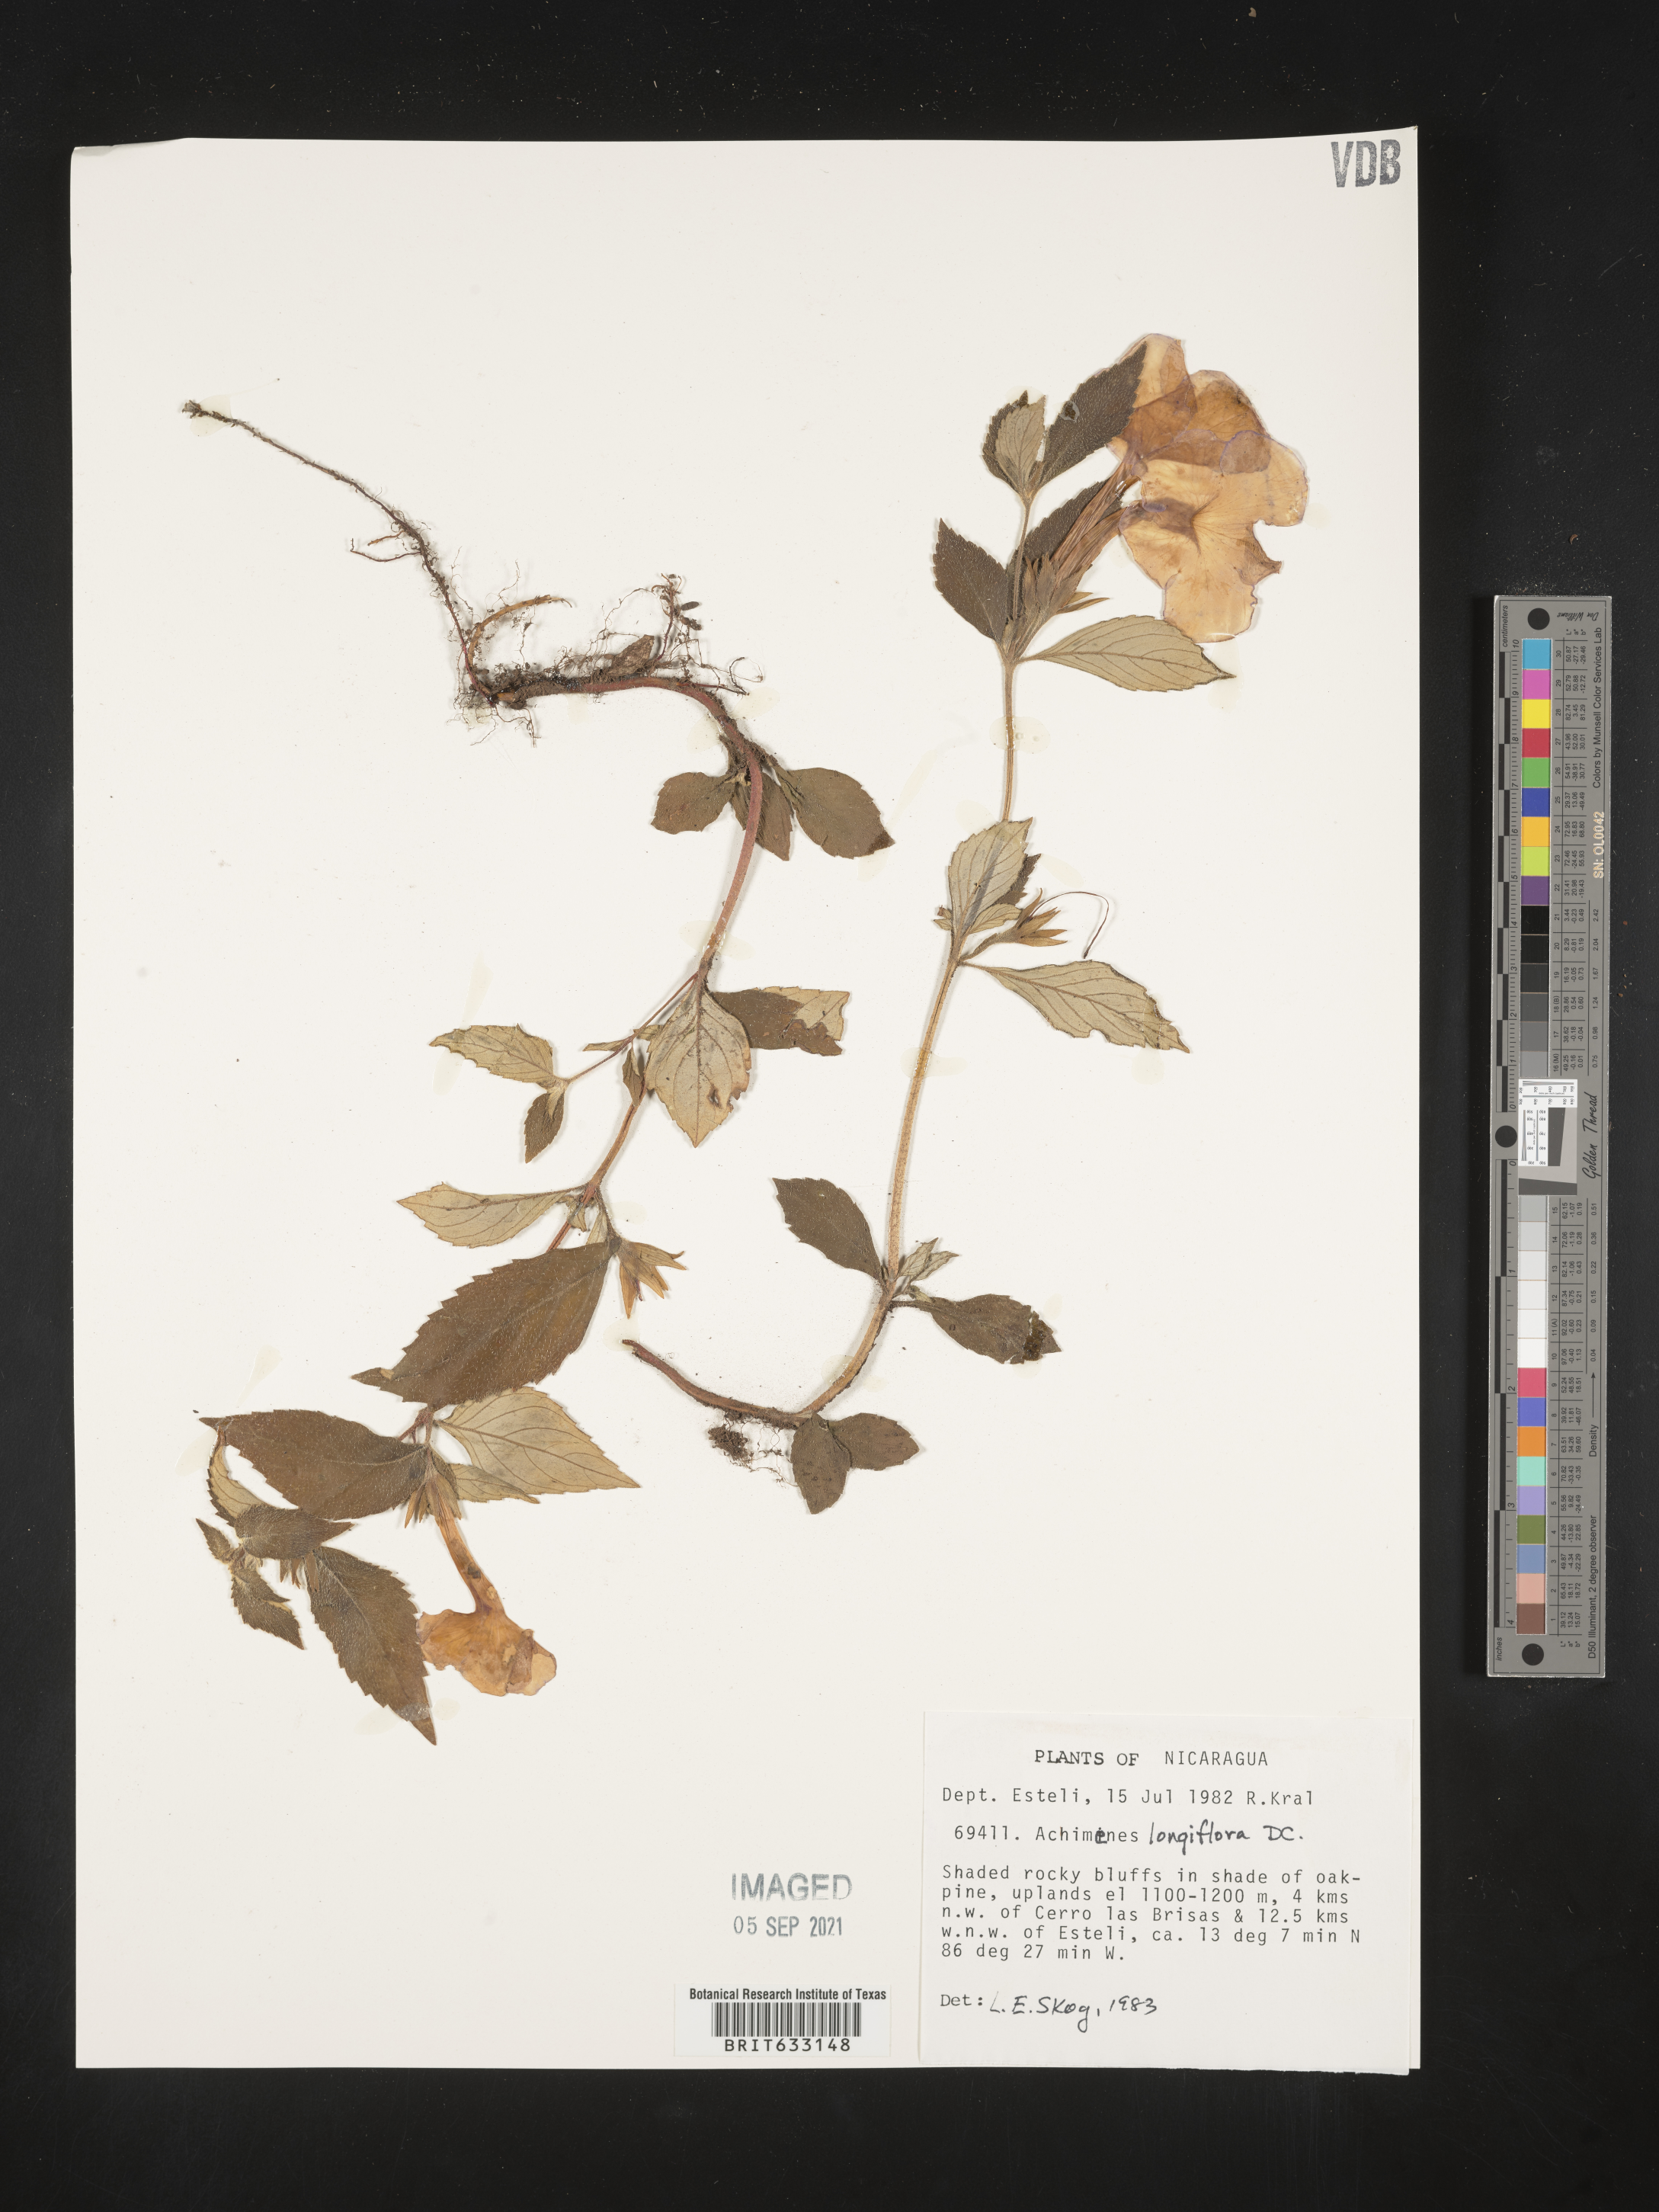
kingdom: Plantae
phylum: Tracheophyta
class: Magnoliopsida
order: Lamiales
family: Gesneriaceae
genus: Achimenes
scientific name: Achimenes
